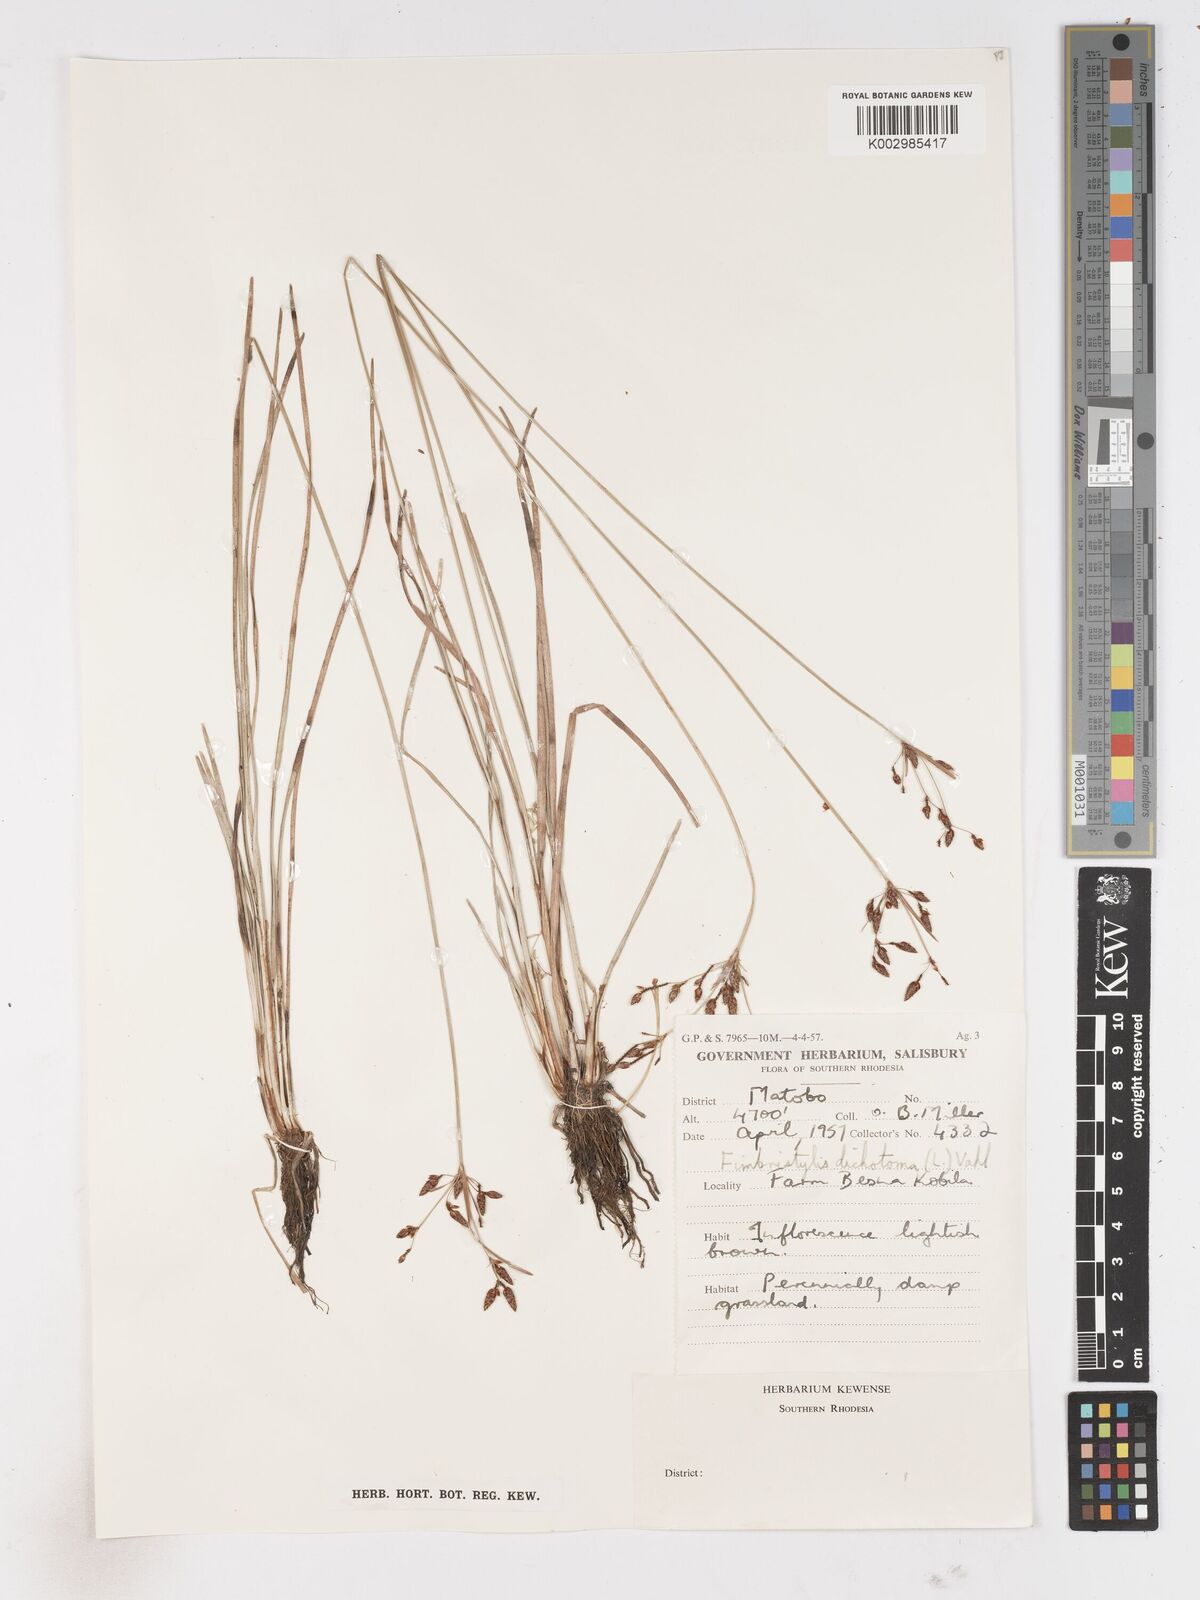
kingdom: Plantae
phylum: Tracheophyta
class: Liliopsida
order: Poales
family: Cyperaceae
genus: Fimbristylis
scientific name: Fimbristylis
